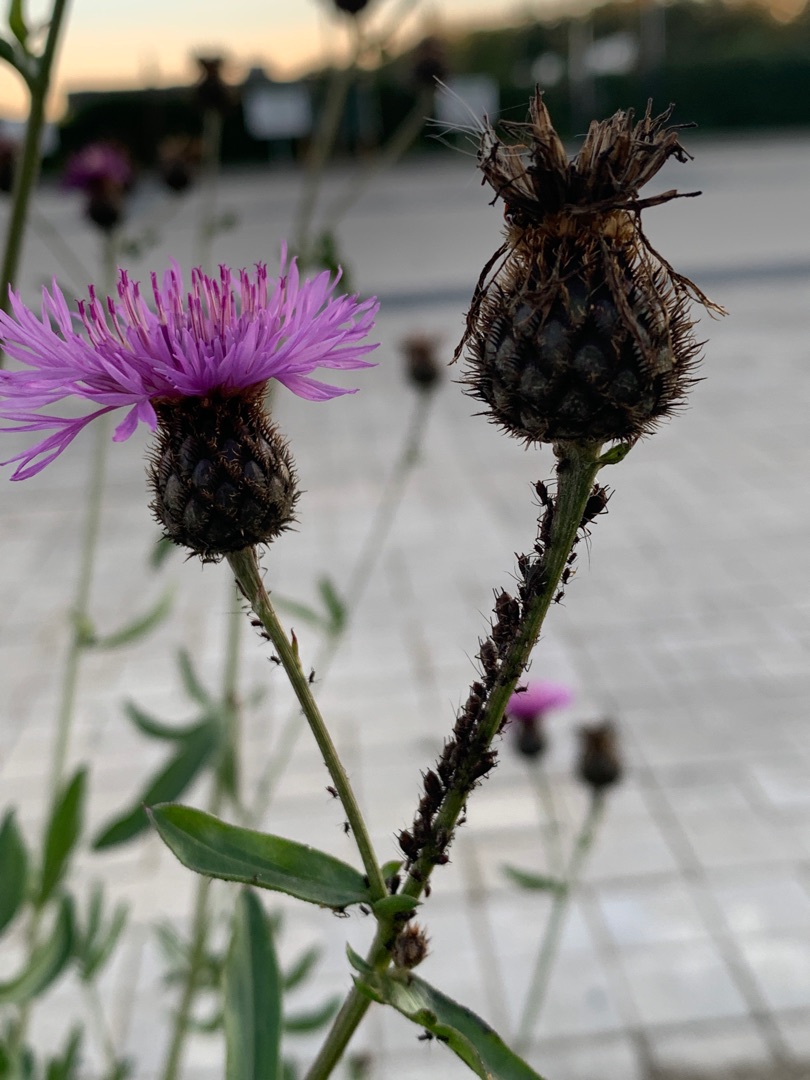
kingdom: Plantae
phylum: Tracheophyta
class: Magnoliopsida
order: Asterales
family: Asteraceae
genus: Centaurea
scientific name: Centaurea scabiosa
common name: Stor knopurt
